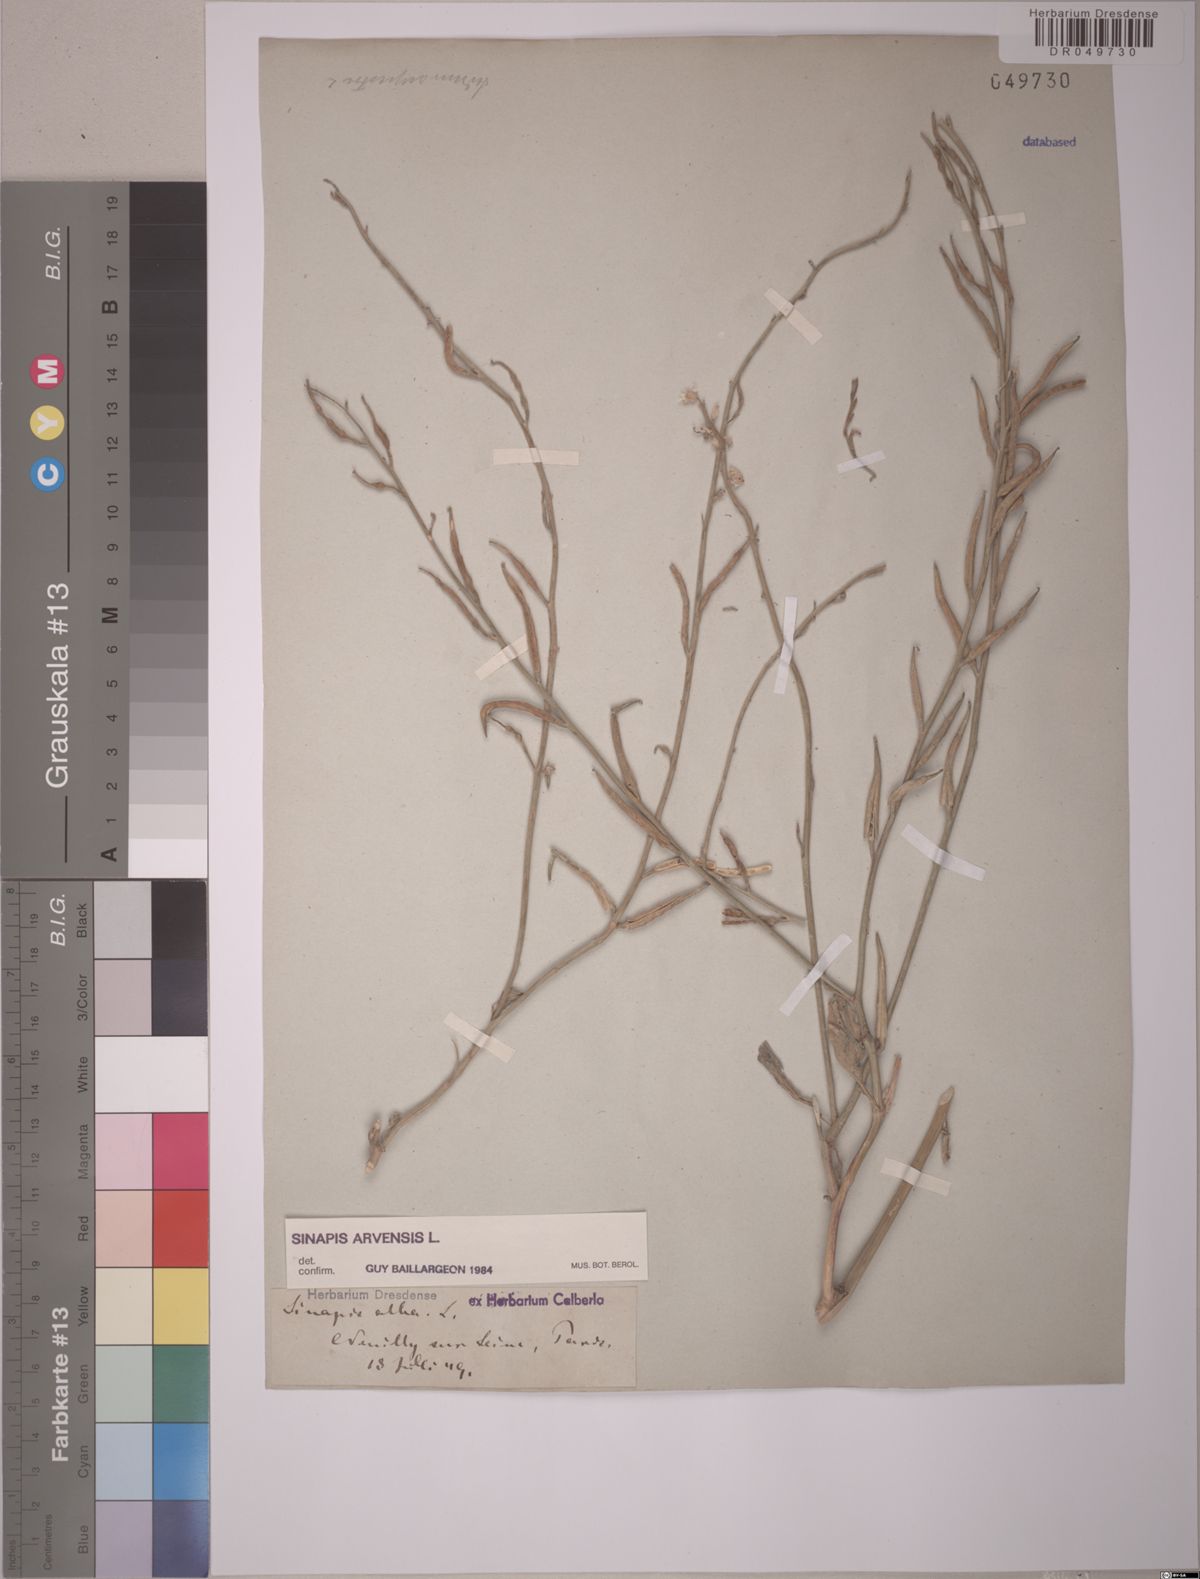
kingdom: Plantae
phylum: Tracheophyta
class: Magnoliopsida
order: Brassicales
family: Brassicaceae
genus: Sinapis
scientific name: Sinapis arvensis
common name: Charlock
